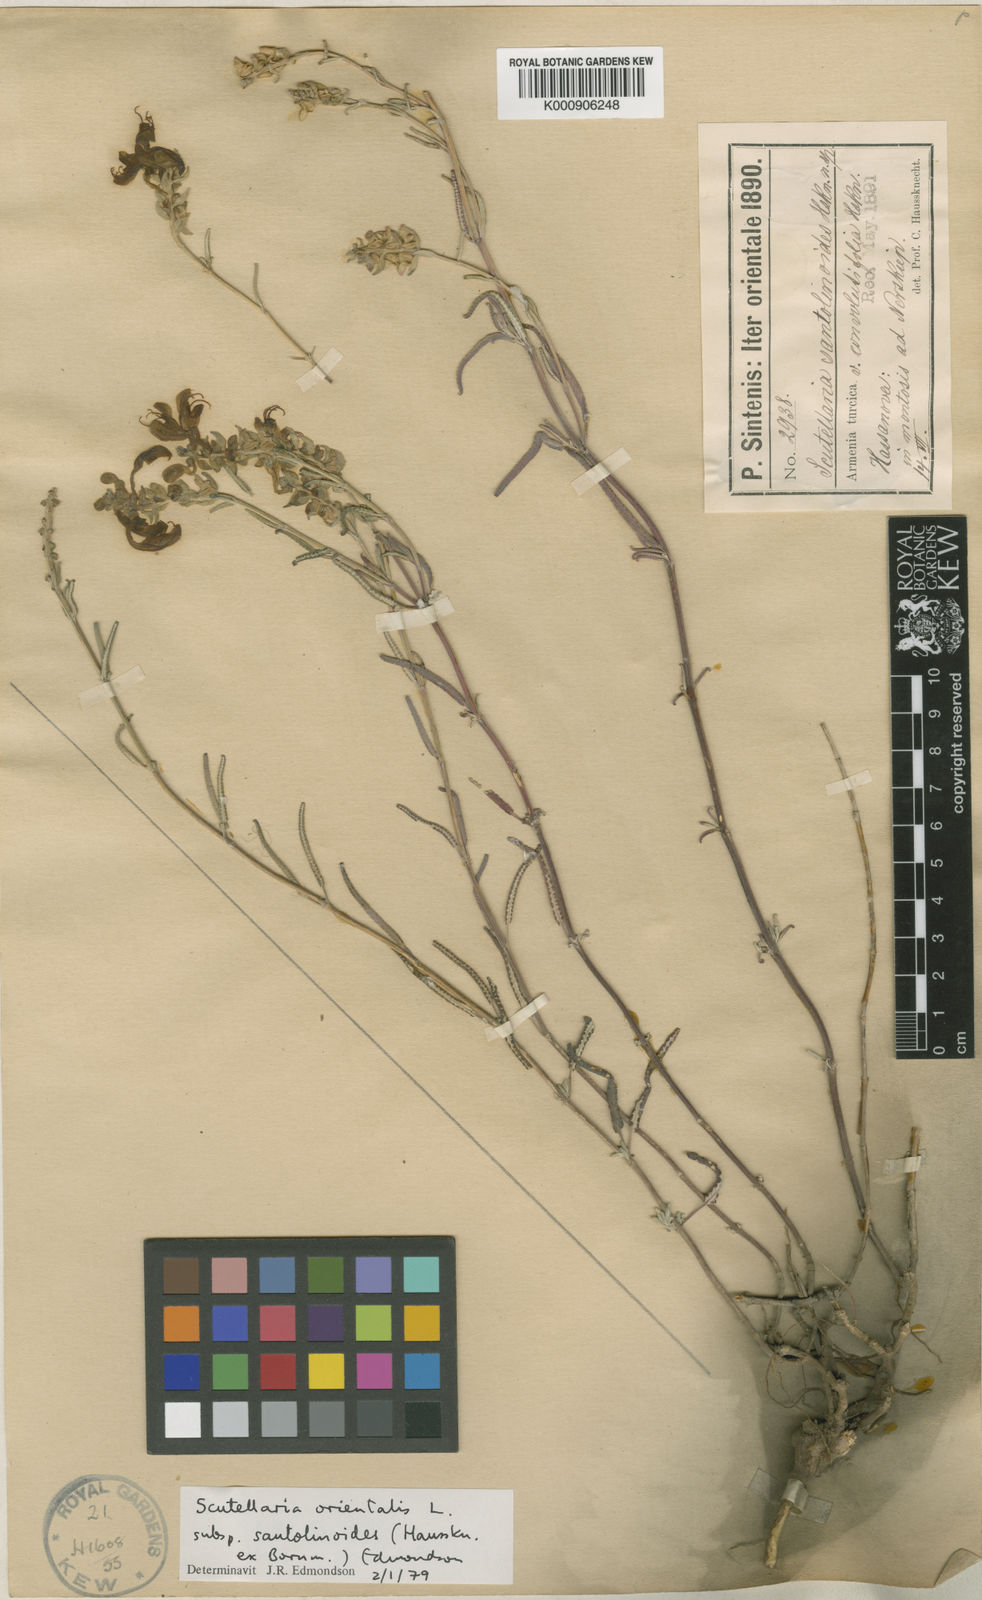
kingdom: Plantae
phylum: Tracheophyta
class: Magnoliopsida
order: Lamiales
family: Lamiaceae
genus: Scutellaria
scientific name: Scutellaria orientalis
